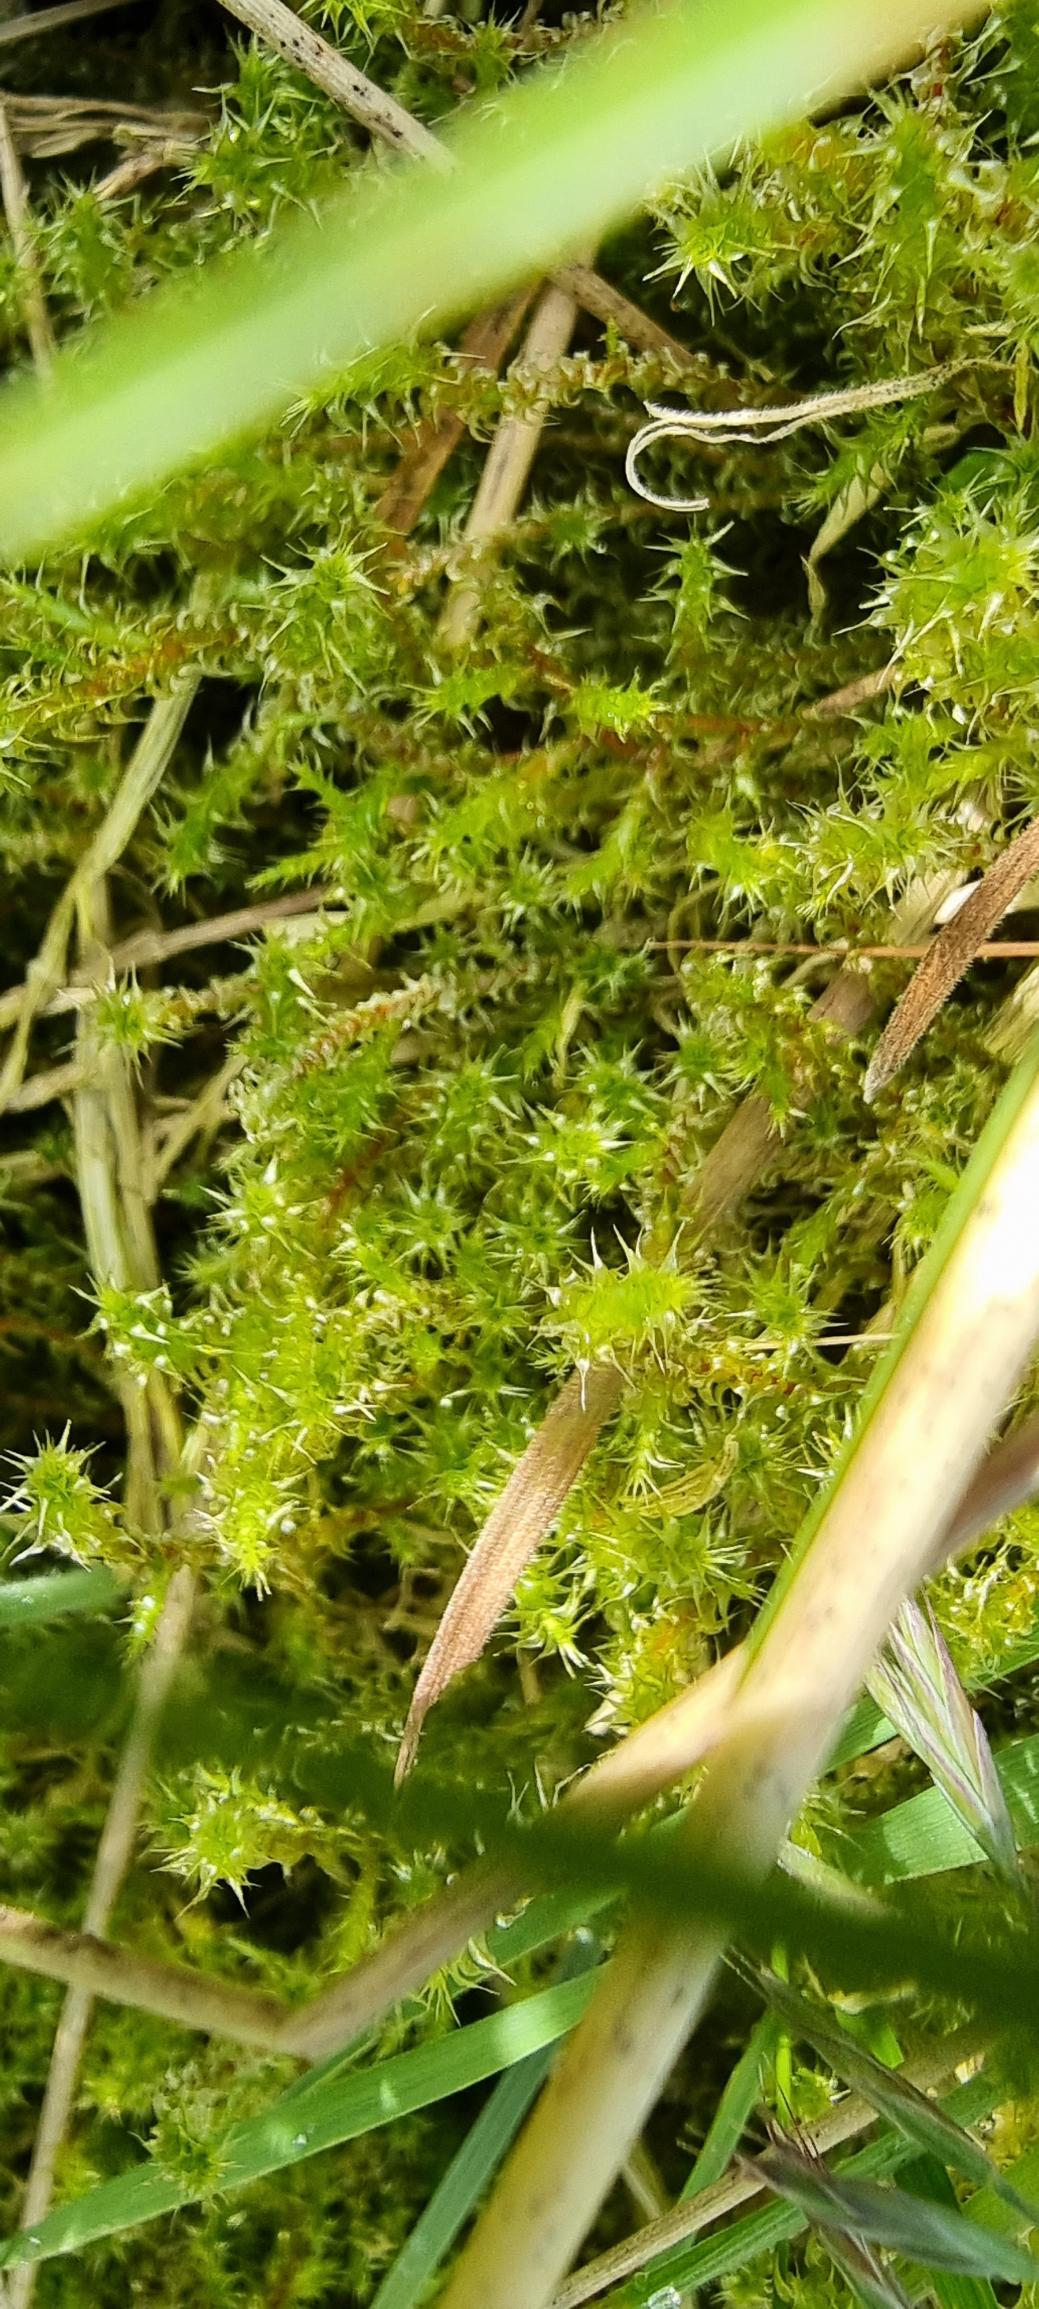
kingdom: Plantae
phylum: Bryophyta
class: Bryopsida
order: Hypnales
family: Hylocomiaceae
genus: Rhytidiadelphus
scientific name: Rhytidiadelphus squarrosus
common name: Plæne-kransemos
